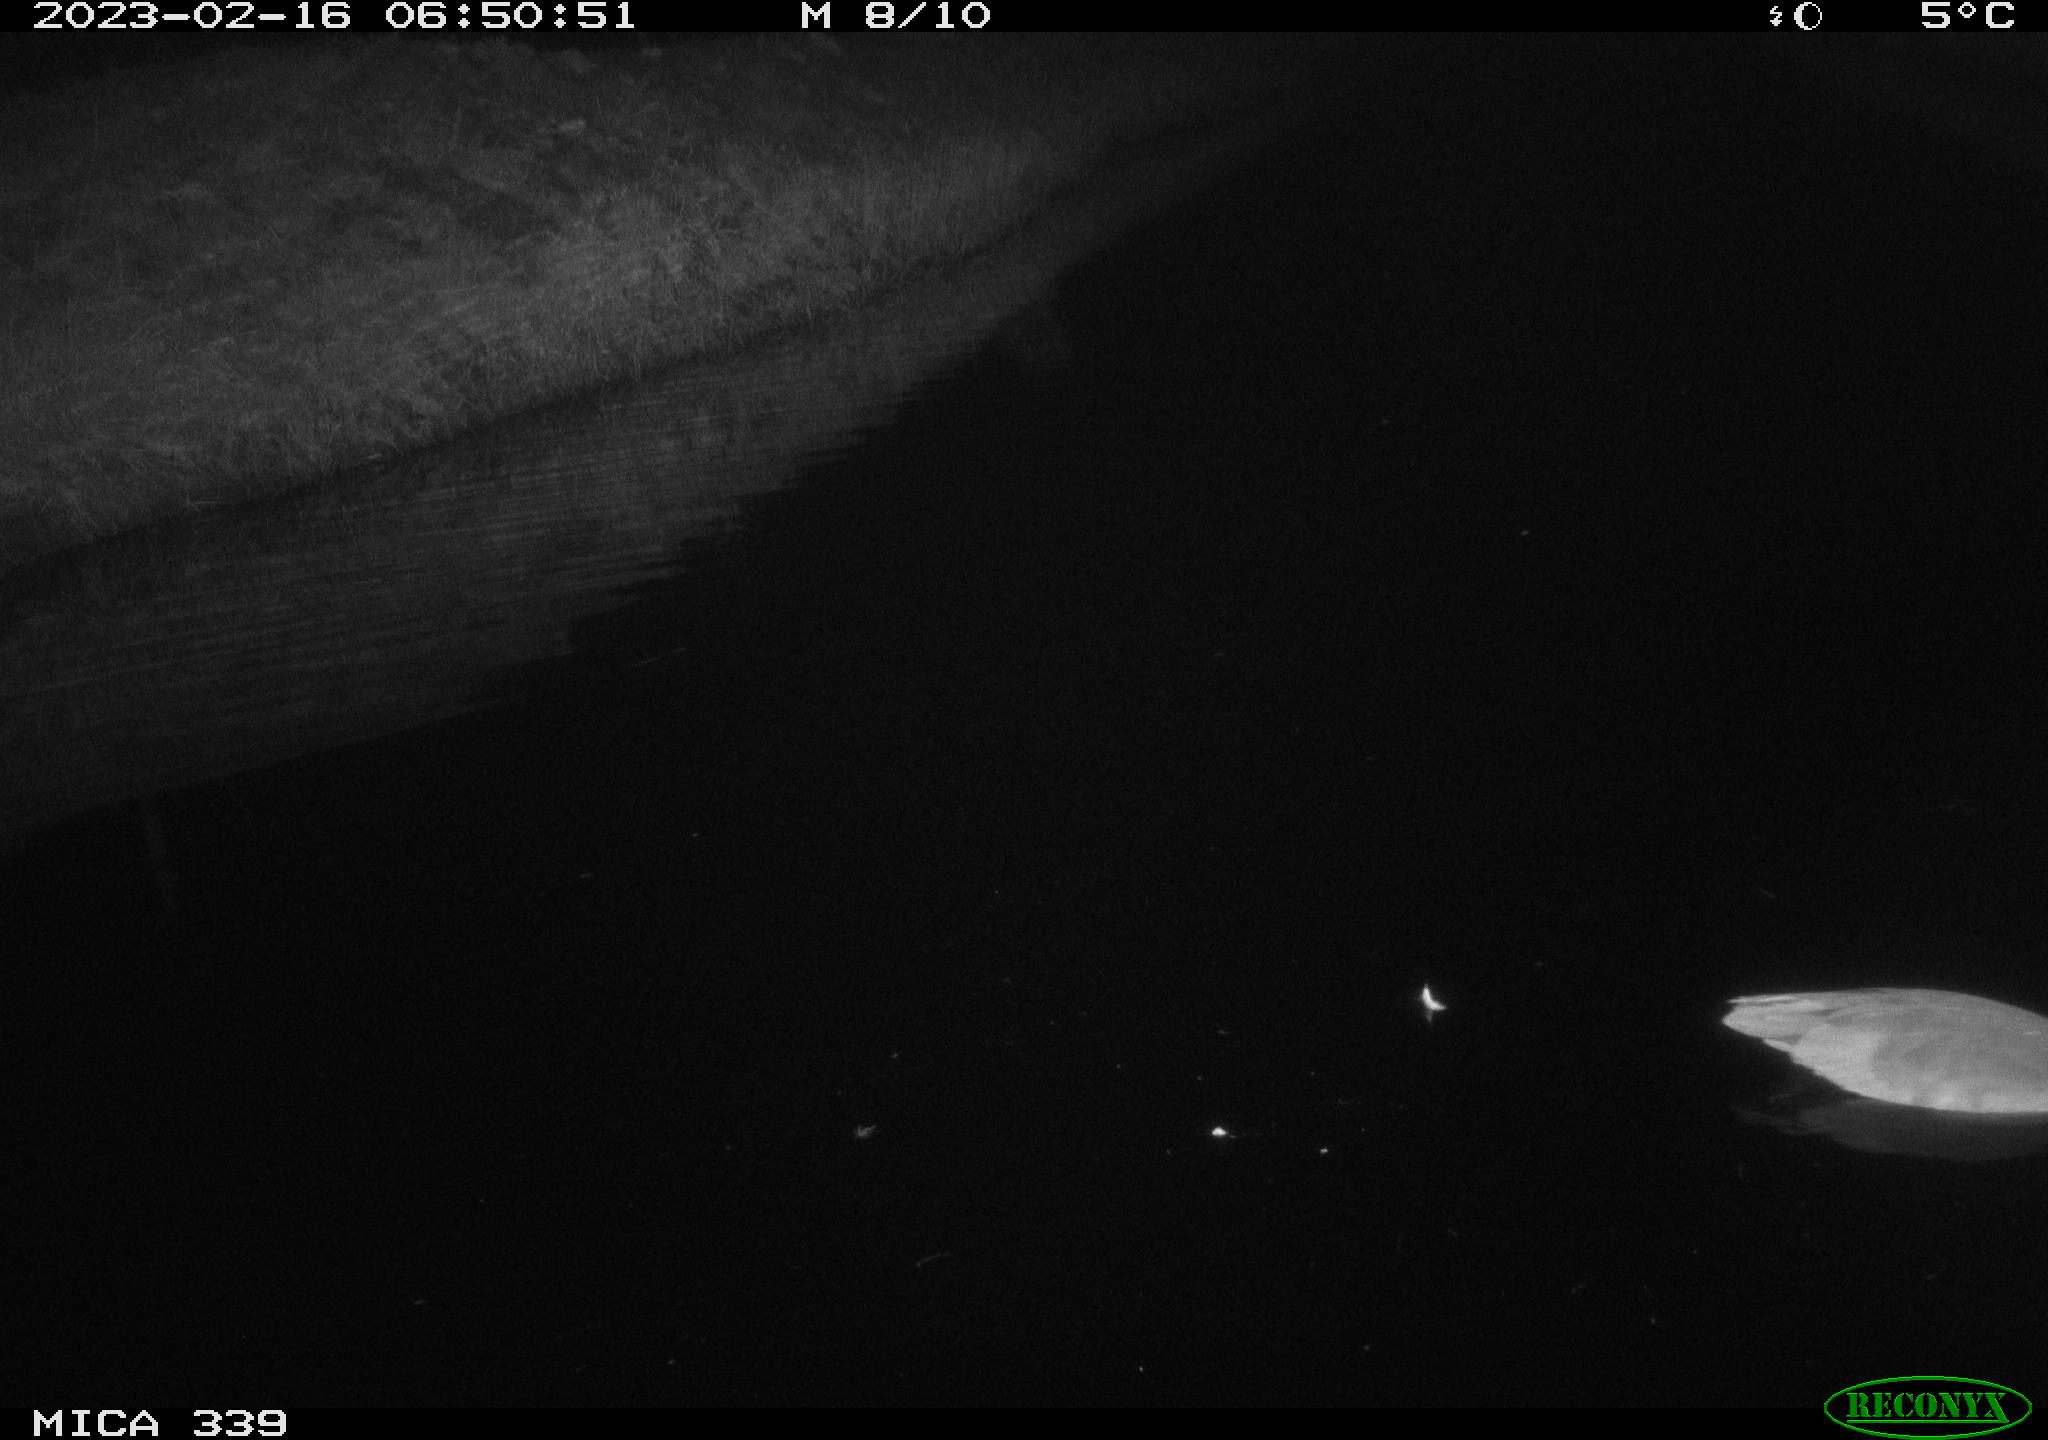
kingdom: Animalia
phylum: Chordata
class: Aves
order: Pelecaniformes
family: Ardeidae
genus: Ardea
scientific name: Ardea cinerea
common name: Grey heron
